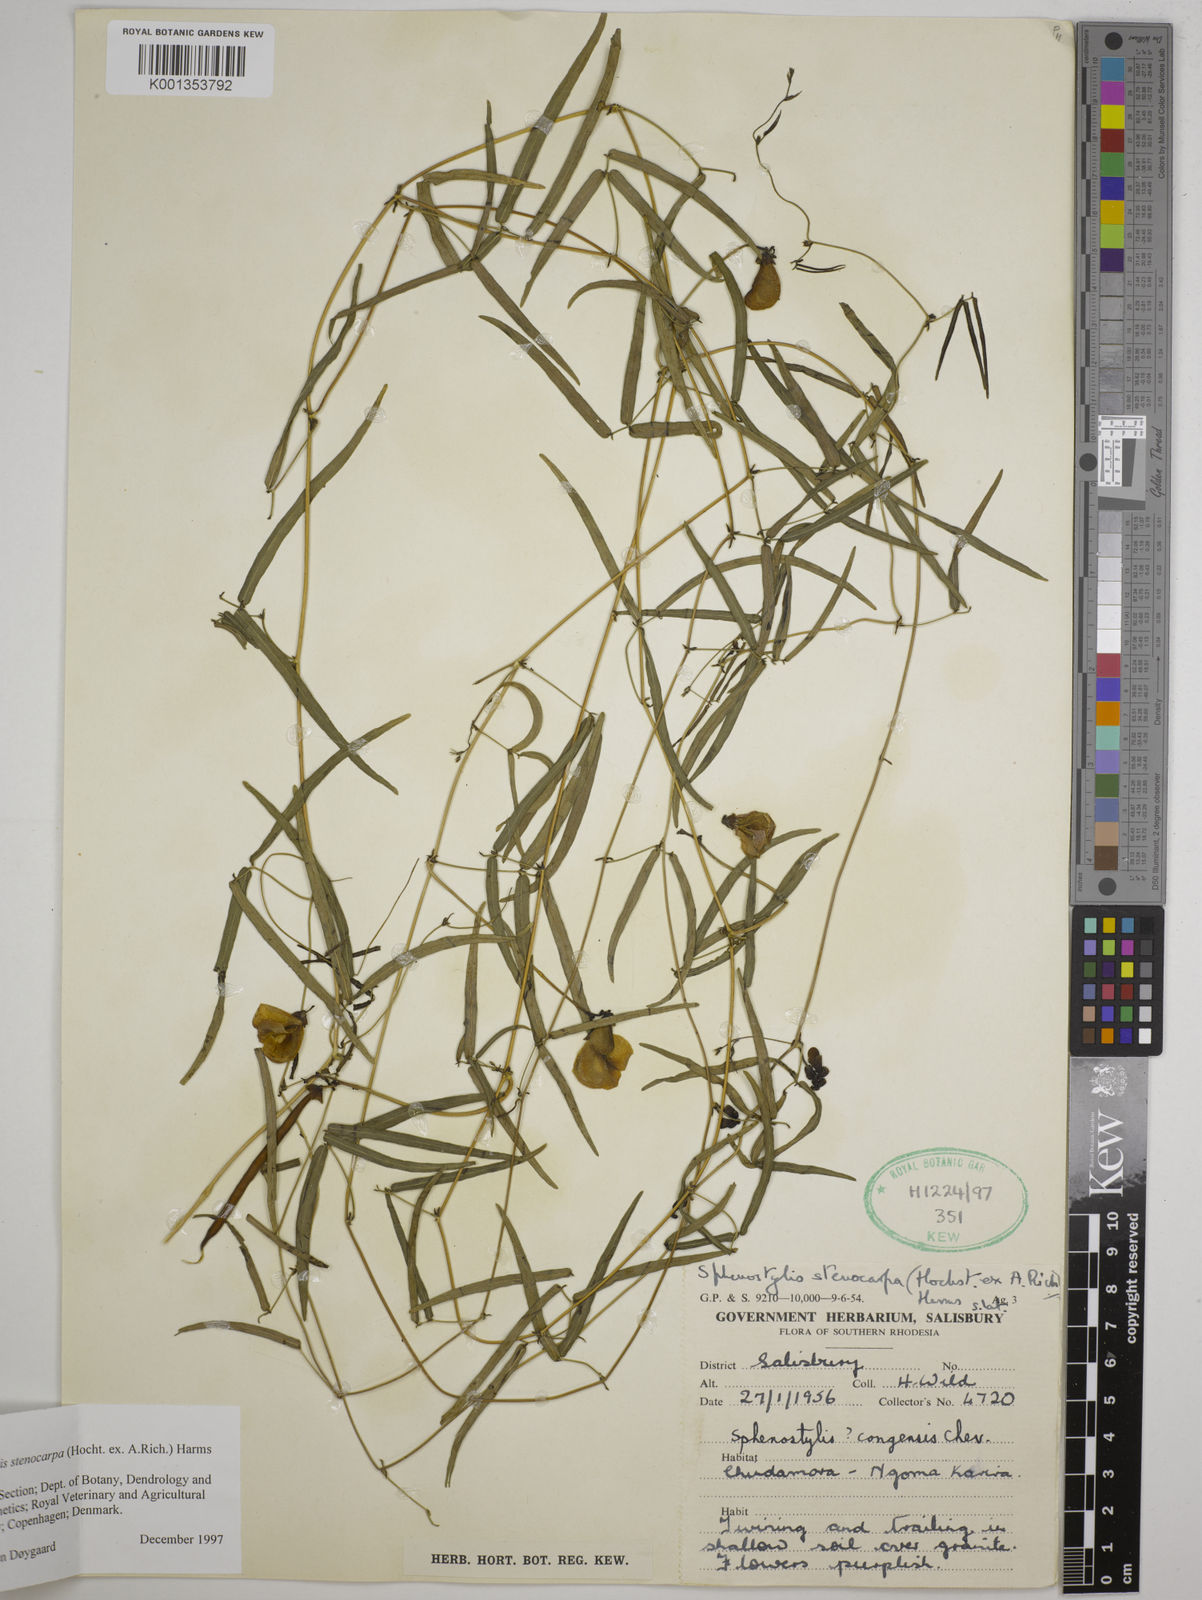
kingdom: Plantae
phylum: Tracheophyta
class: Magnoliopsida
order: Fabales
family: Fabaceae
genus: Sphenostylis
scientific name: Sphenostylis stenocarpa
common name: Yam-pea
